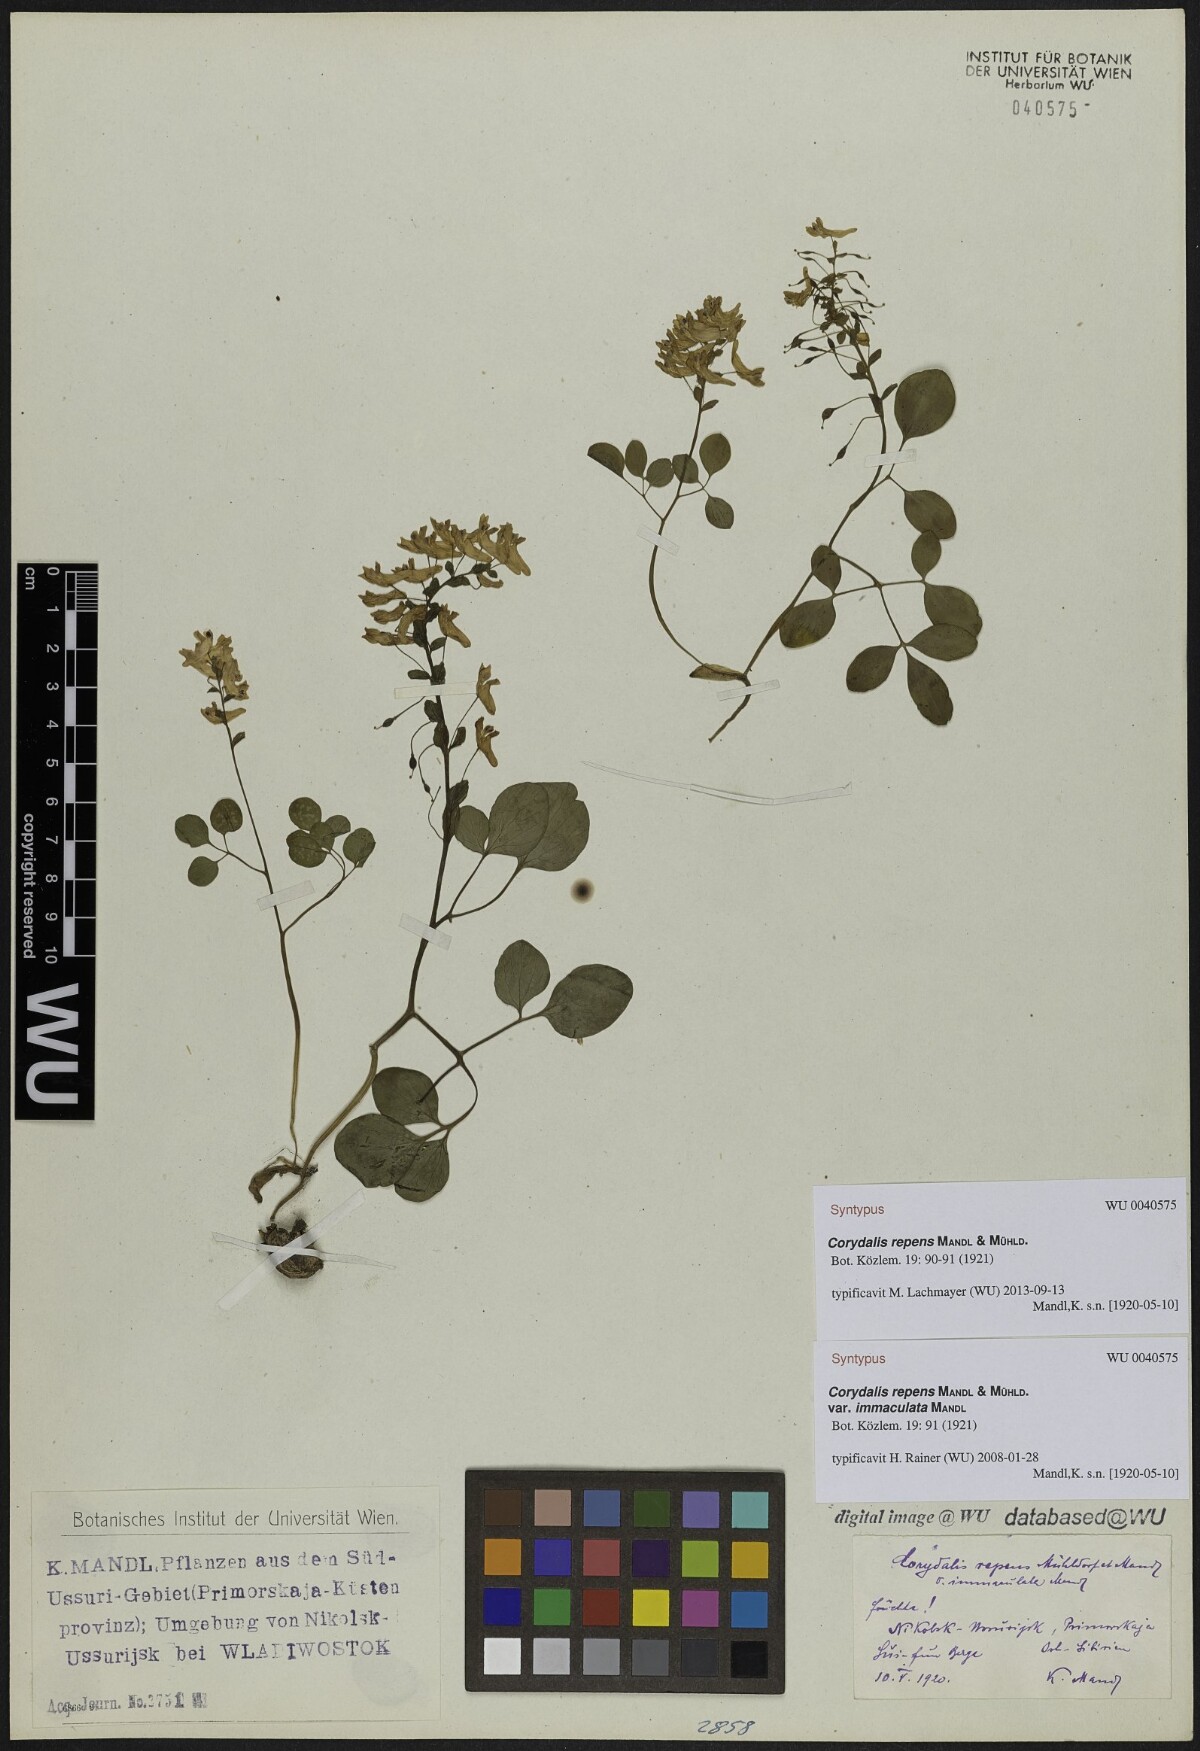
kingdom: Plantae
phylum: Tracheophyta
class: Magnoliopsida
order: Ranunculales
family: Papaveraceae
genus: Corydalis
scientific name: Corydalis repens
